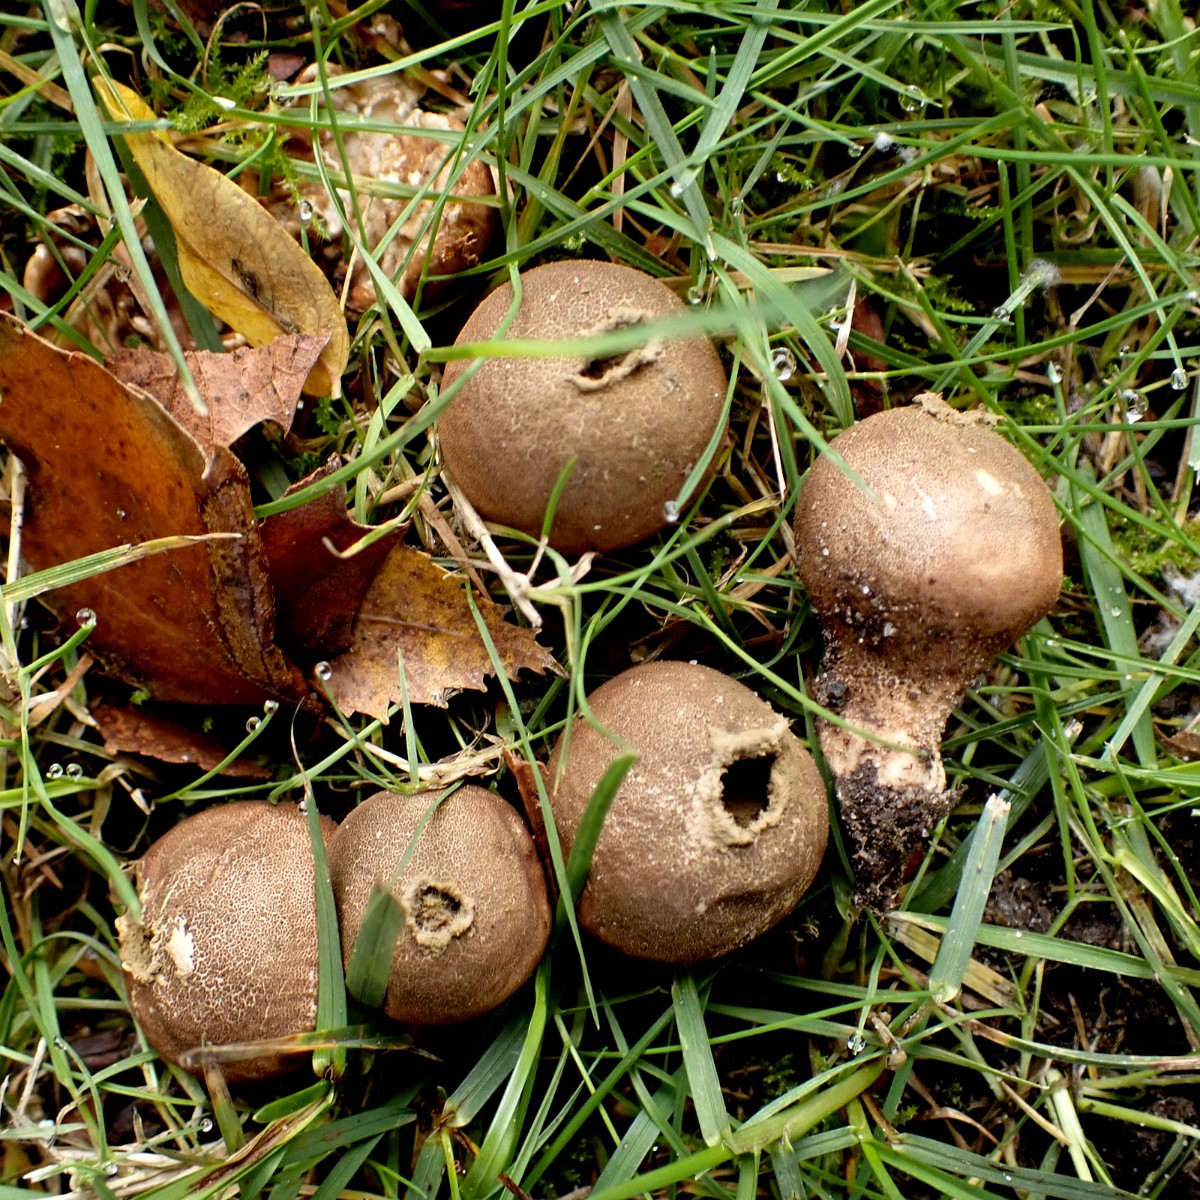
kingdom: Fungi
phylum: Basidiomycota
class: Agaricomycetes
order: Agaricales
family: Lycoperdaceae
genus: Apioperdon
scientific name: Apioperdon pyriforme
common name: pære-støvbold
